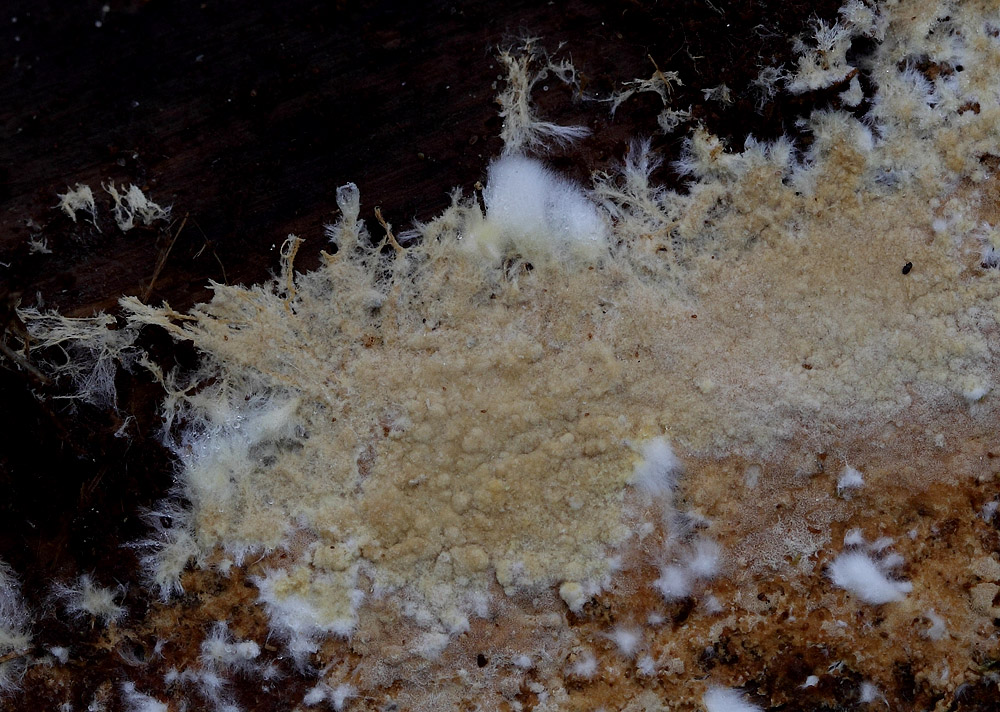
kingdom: Fungi
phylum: Basidiomycota
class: Agaricomycetes
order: Russulales
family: Peniophoraceae
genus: Asterostroma
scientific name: Asterostroma laxum
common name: lysrandet stjerneskind
